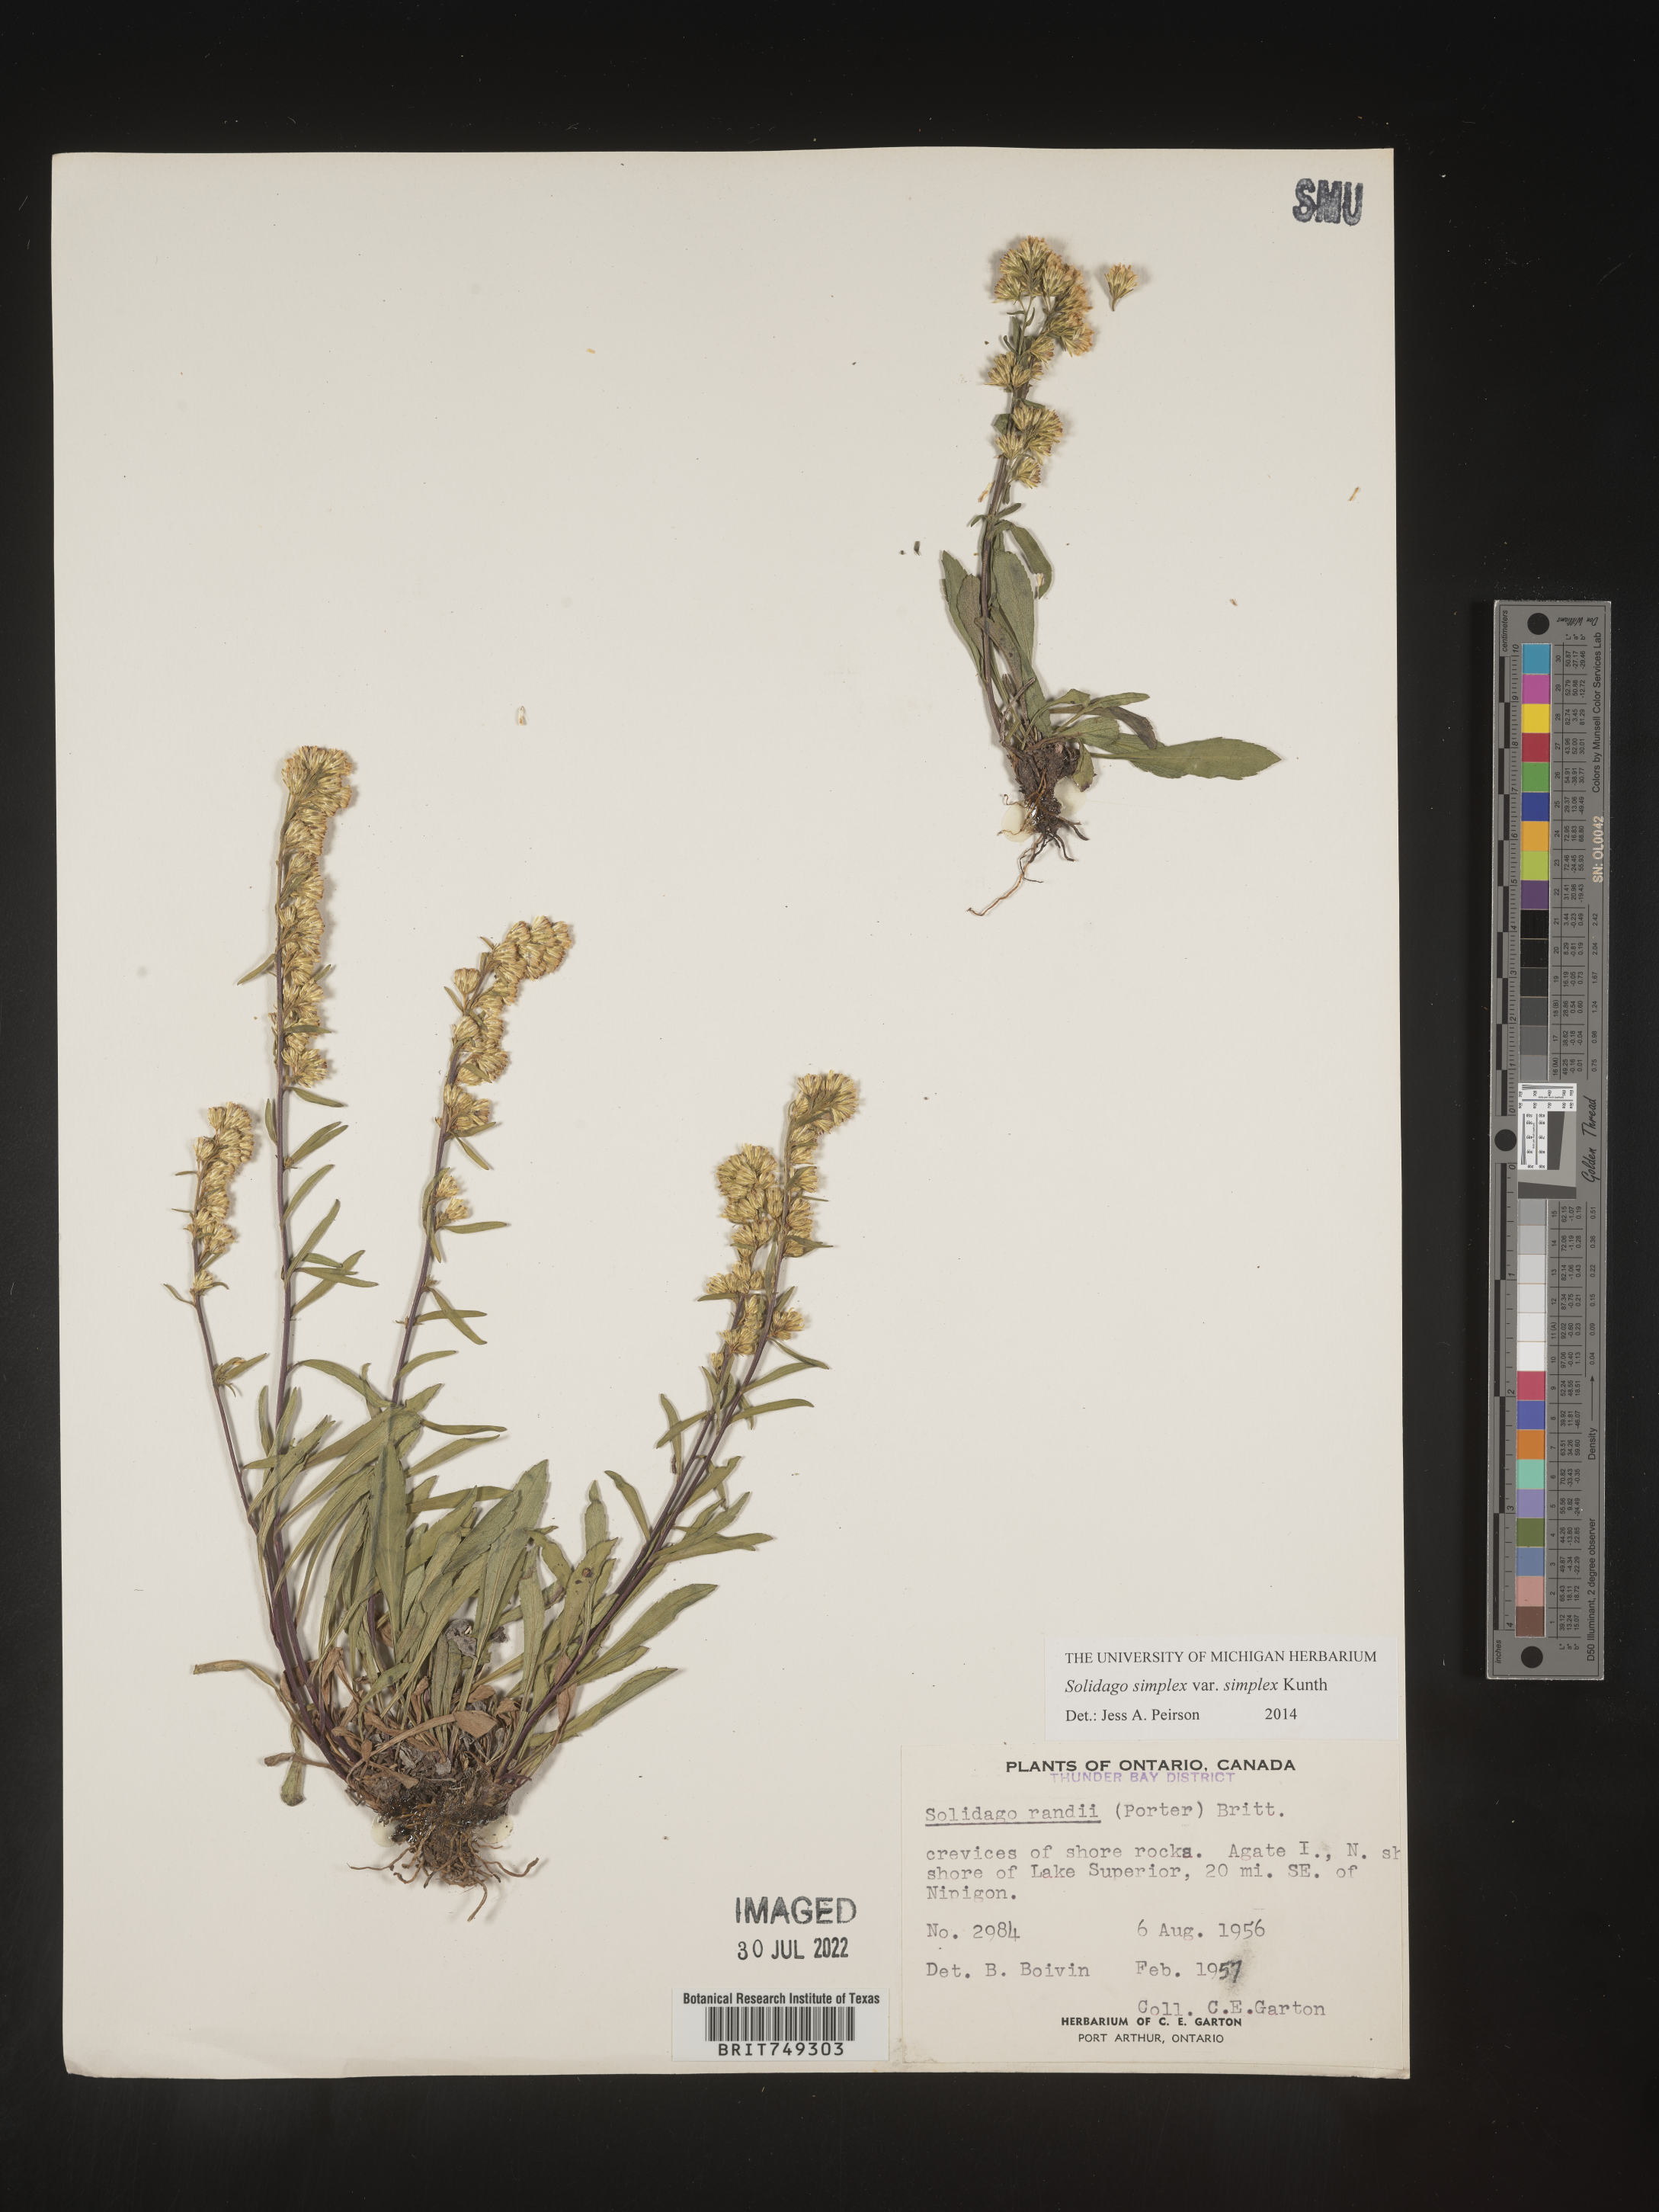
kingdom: Plantae
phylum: Tracheophyta
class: Magnoliopsida
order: Asterales
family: Asteraceae
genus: Solidago
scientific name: Solidago simplex
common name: Sticky goldenrod
